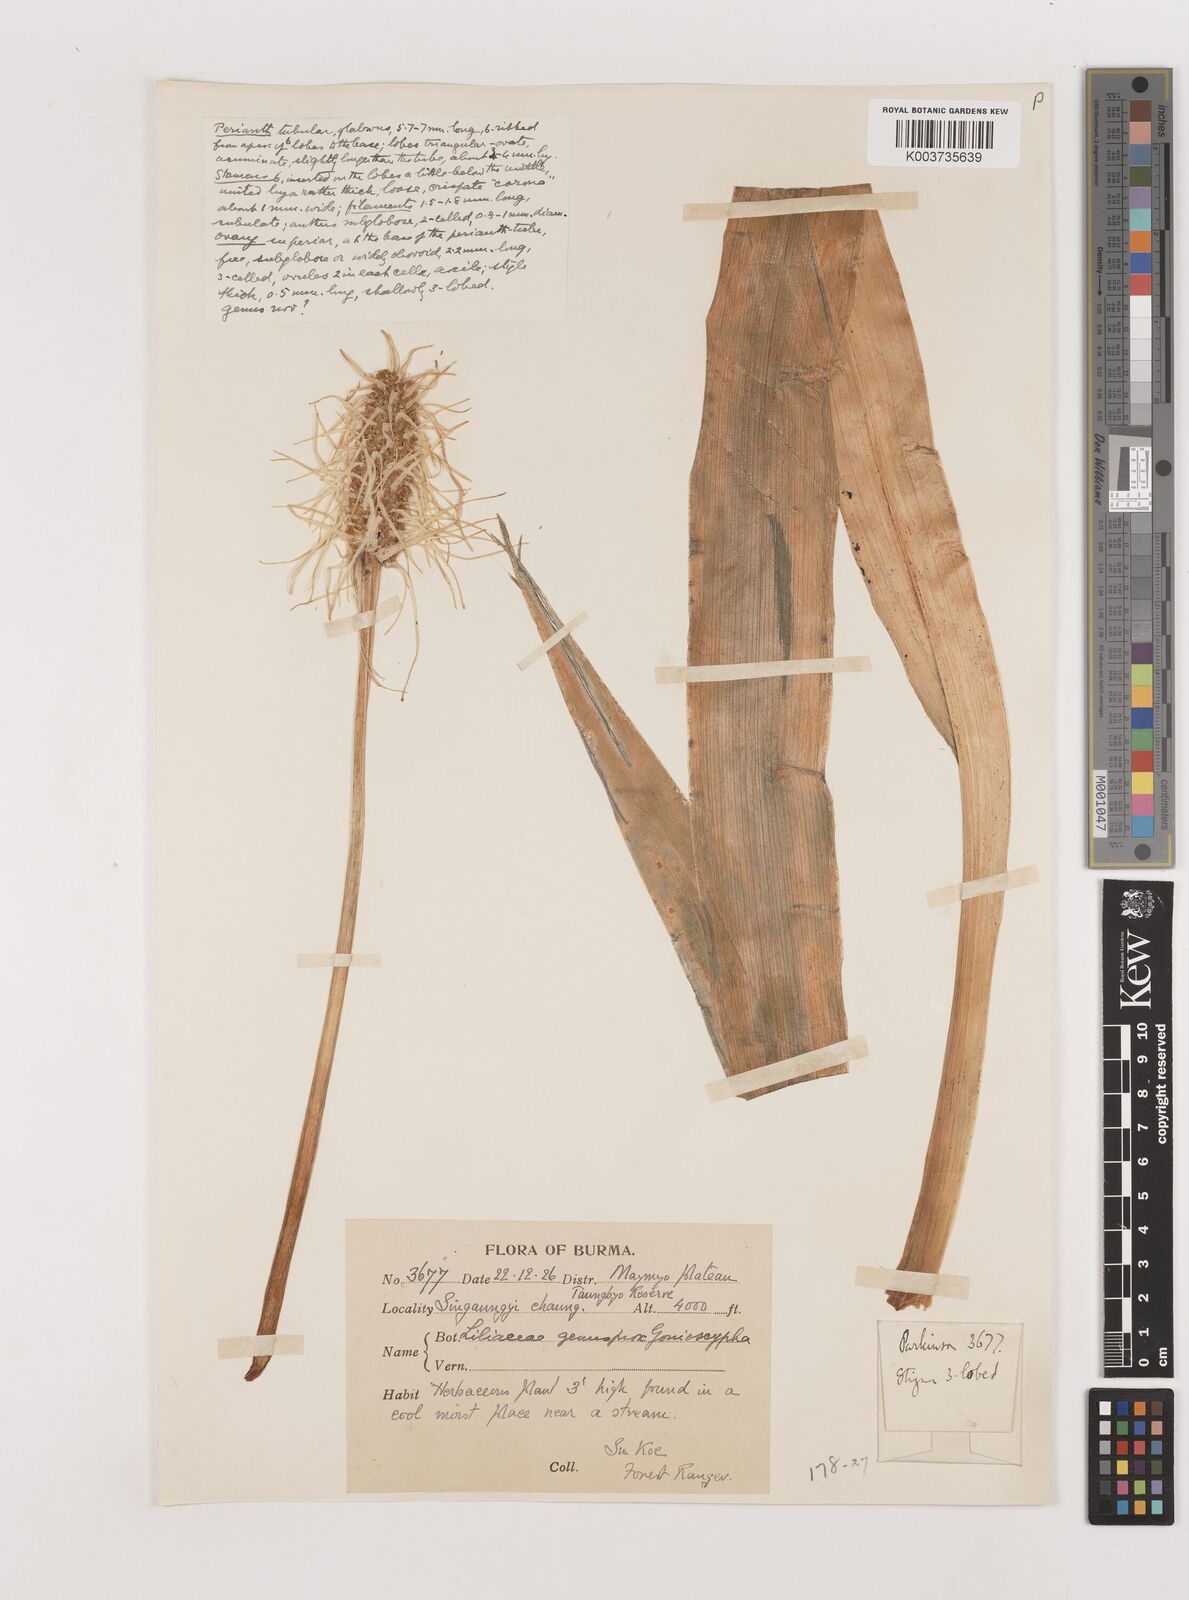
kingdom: Plantae
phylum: Tracheophyta
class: Liliopsida
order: Asparagales
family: Asparagaceae
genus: Rohdea
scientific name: Rohdea
